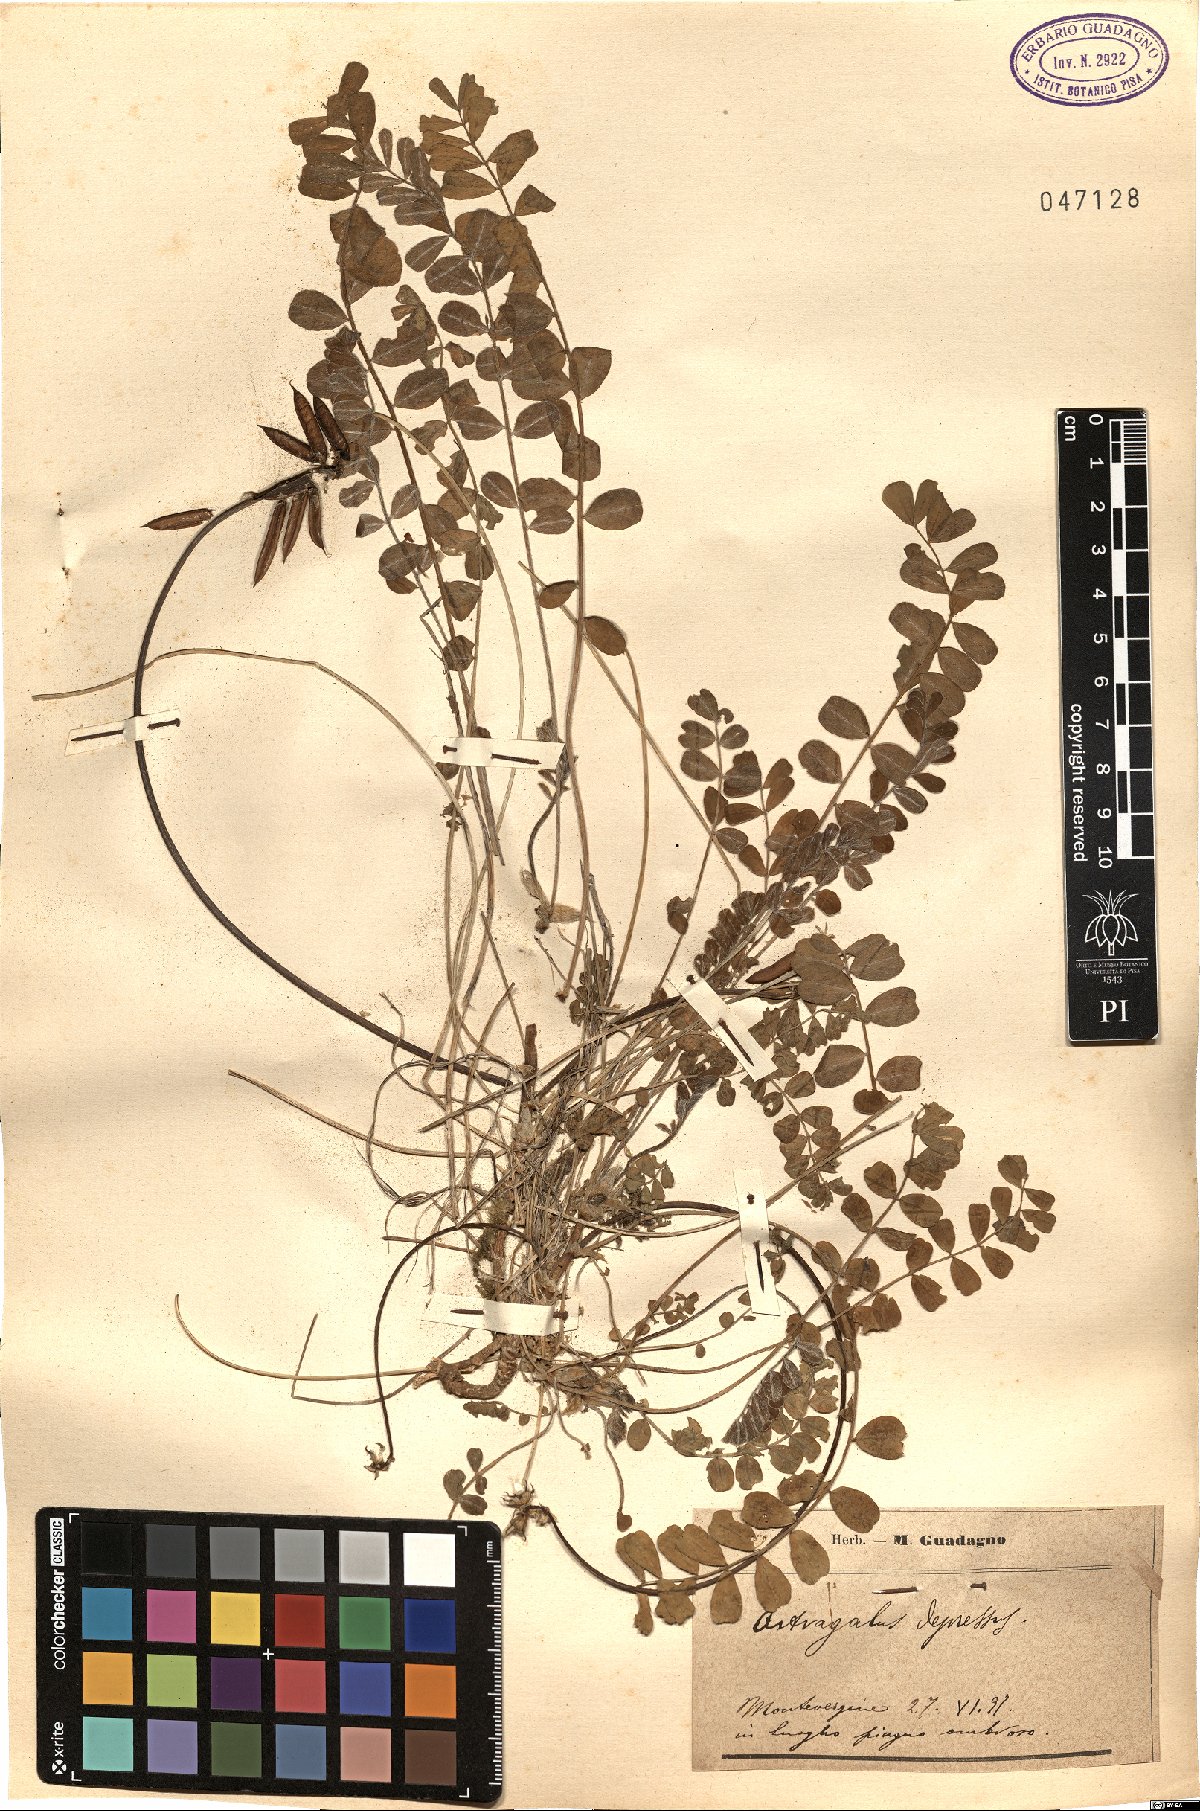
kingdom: Plantae
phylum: Tracheophyta
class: Magnoliopsida
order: Fabales
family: Fabaceae
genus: Astragalus
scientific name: Astragalus depressus
